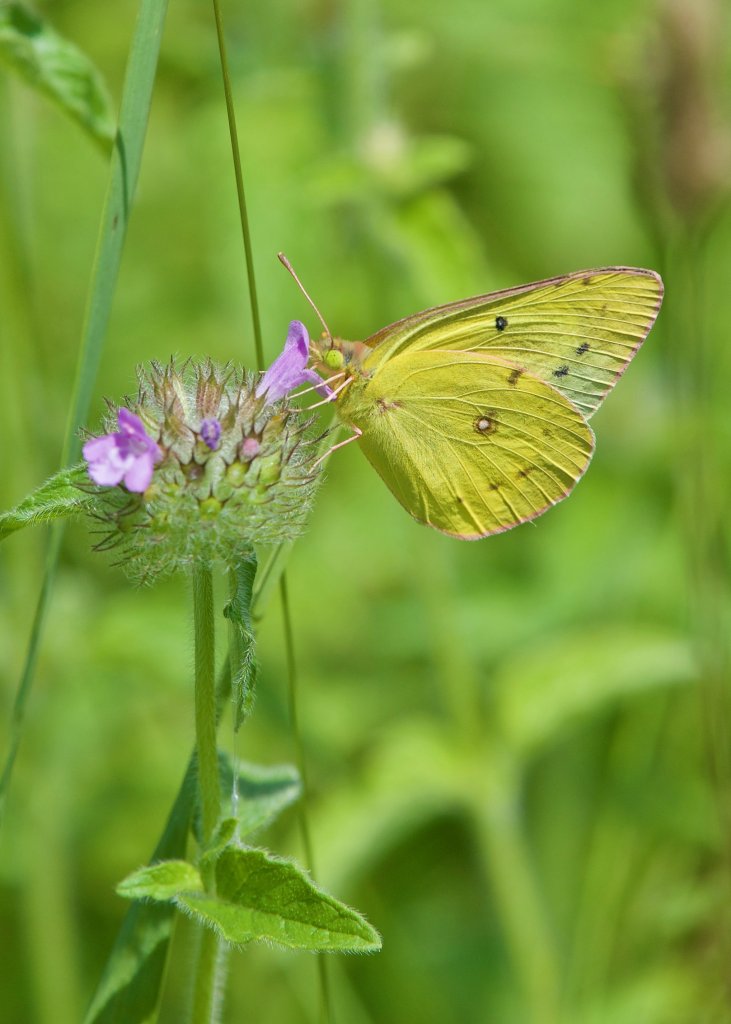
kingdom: Animalia
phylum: Arthropoda
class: Insecta
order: Lepidoptera
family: Pieridae
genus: Colias
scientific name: Colias eurytheme
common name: Orange Sulphur
